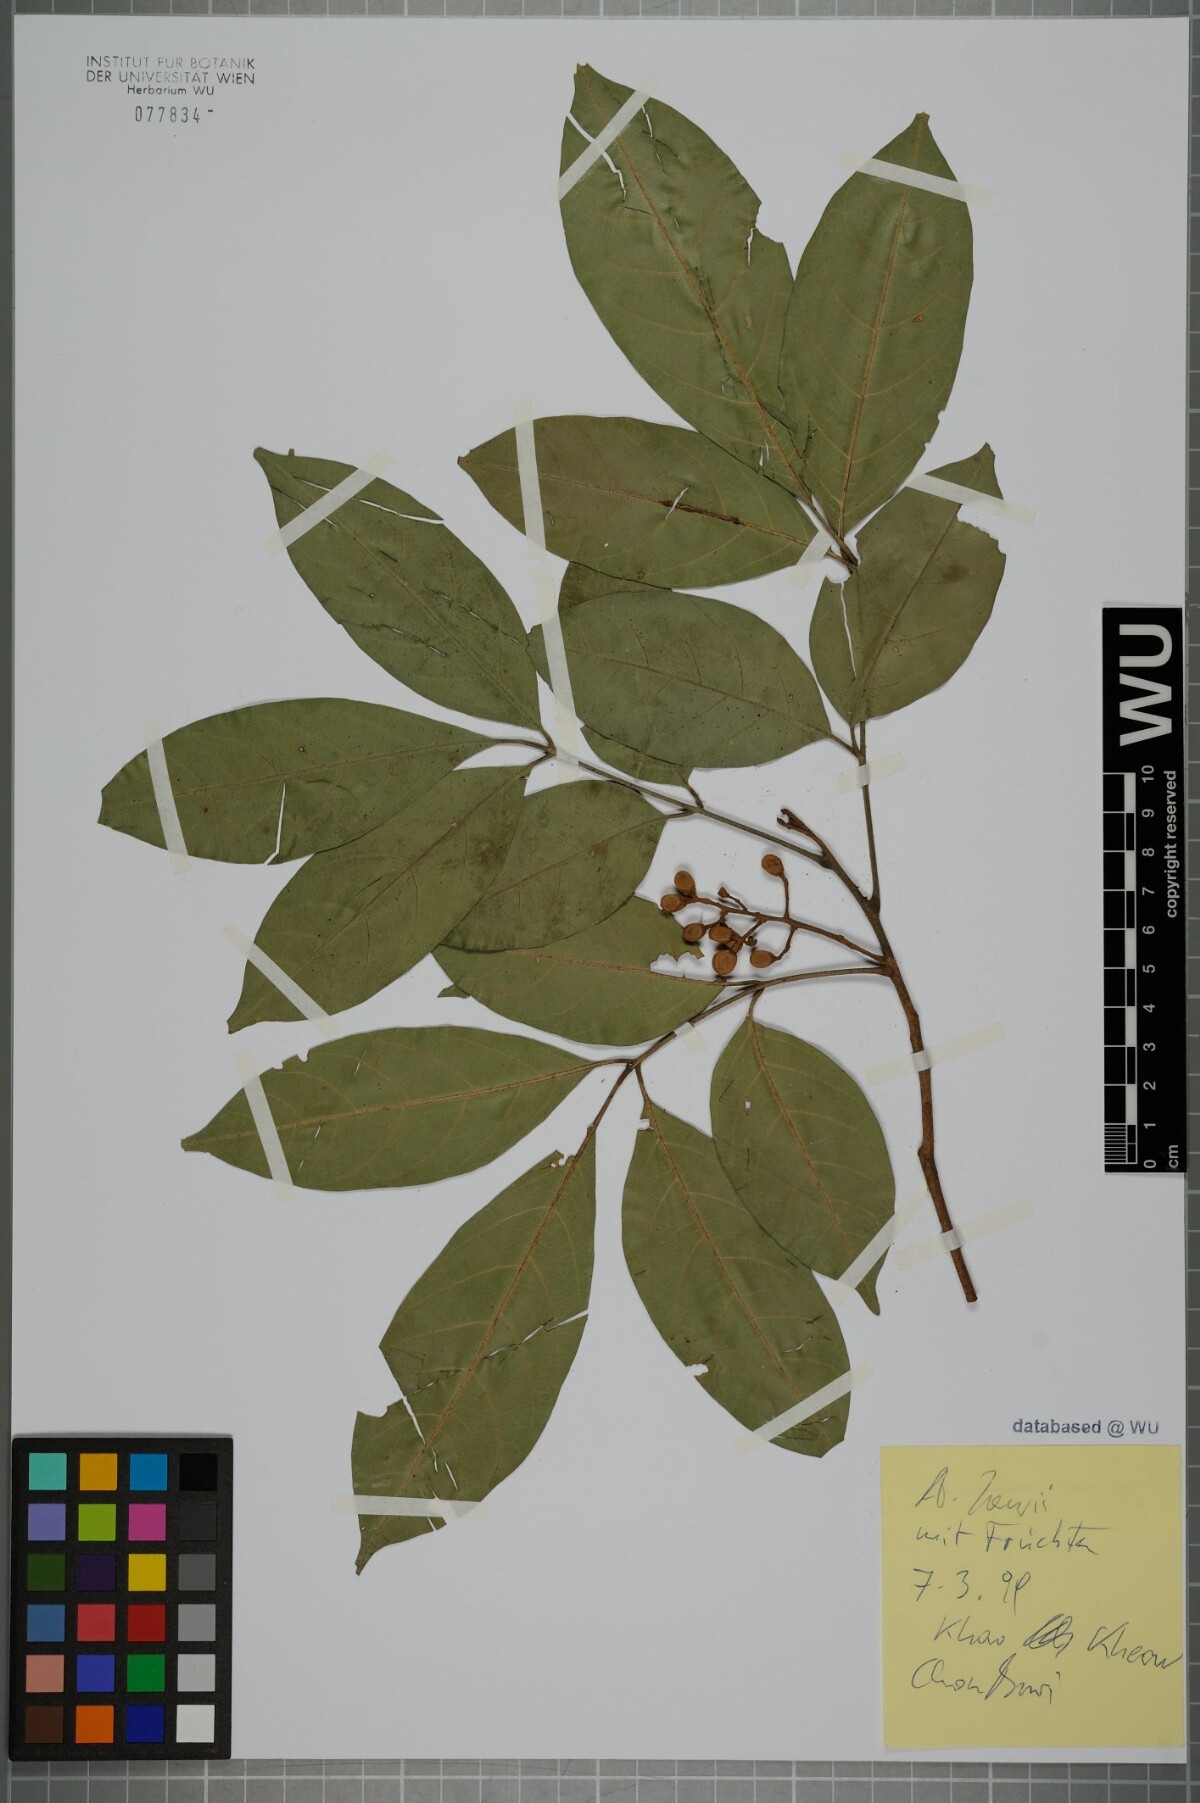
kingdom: Plantae
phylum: Tracheophyta
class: Magnoliopsida
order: Sapindales
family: Meliaceae
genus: Aglaia
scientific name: Aglaia lawii
